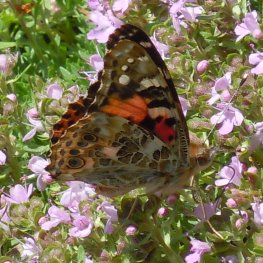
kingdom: Animalia
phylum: Arthropoda
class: Insecta
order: Lepidoptera
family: Nymphalidae
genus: Vanessa
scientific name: Vanessa cardui
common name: Painted Lady
